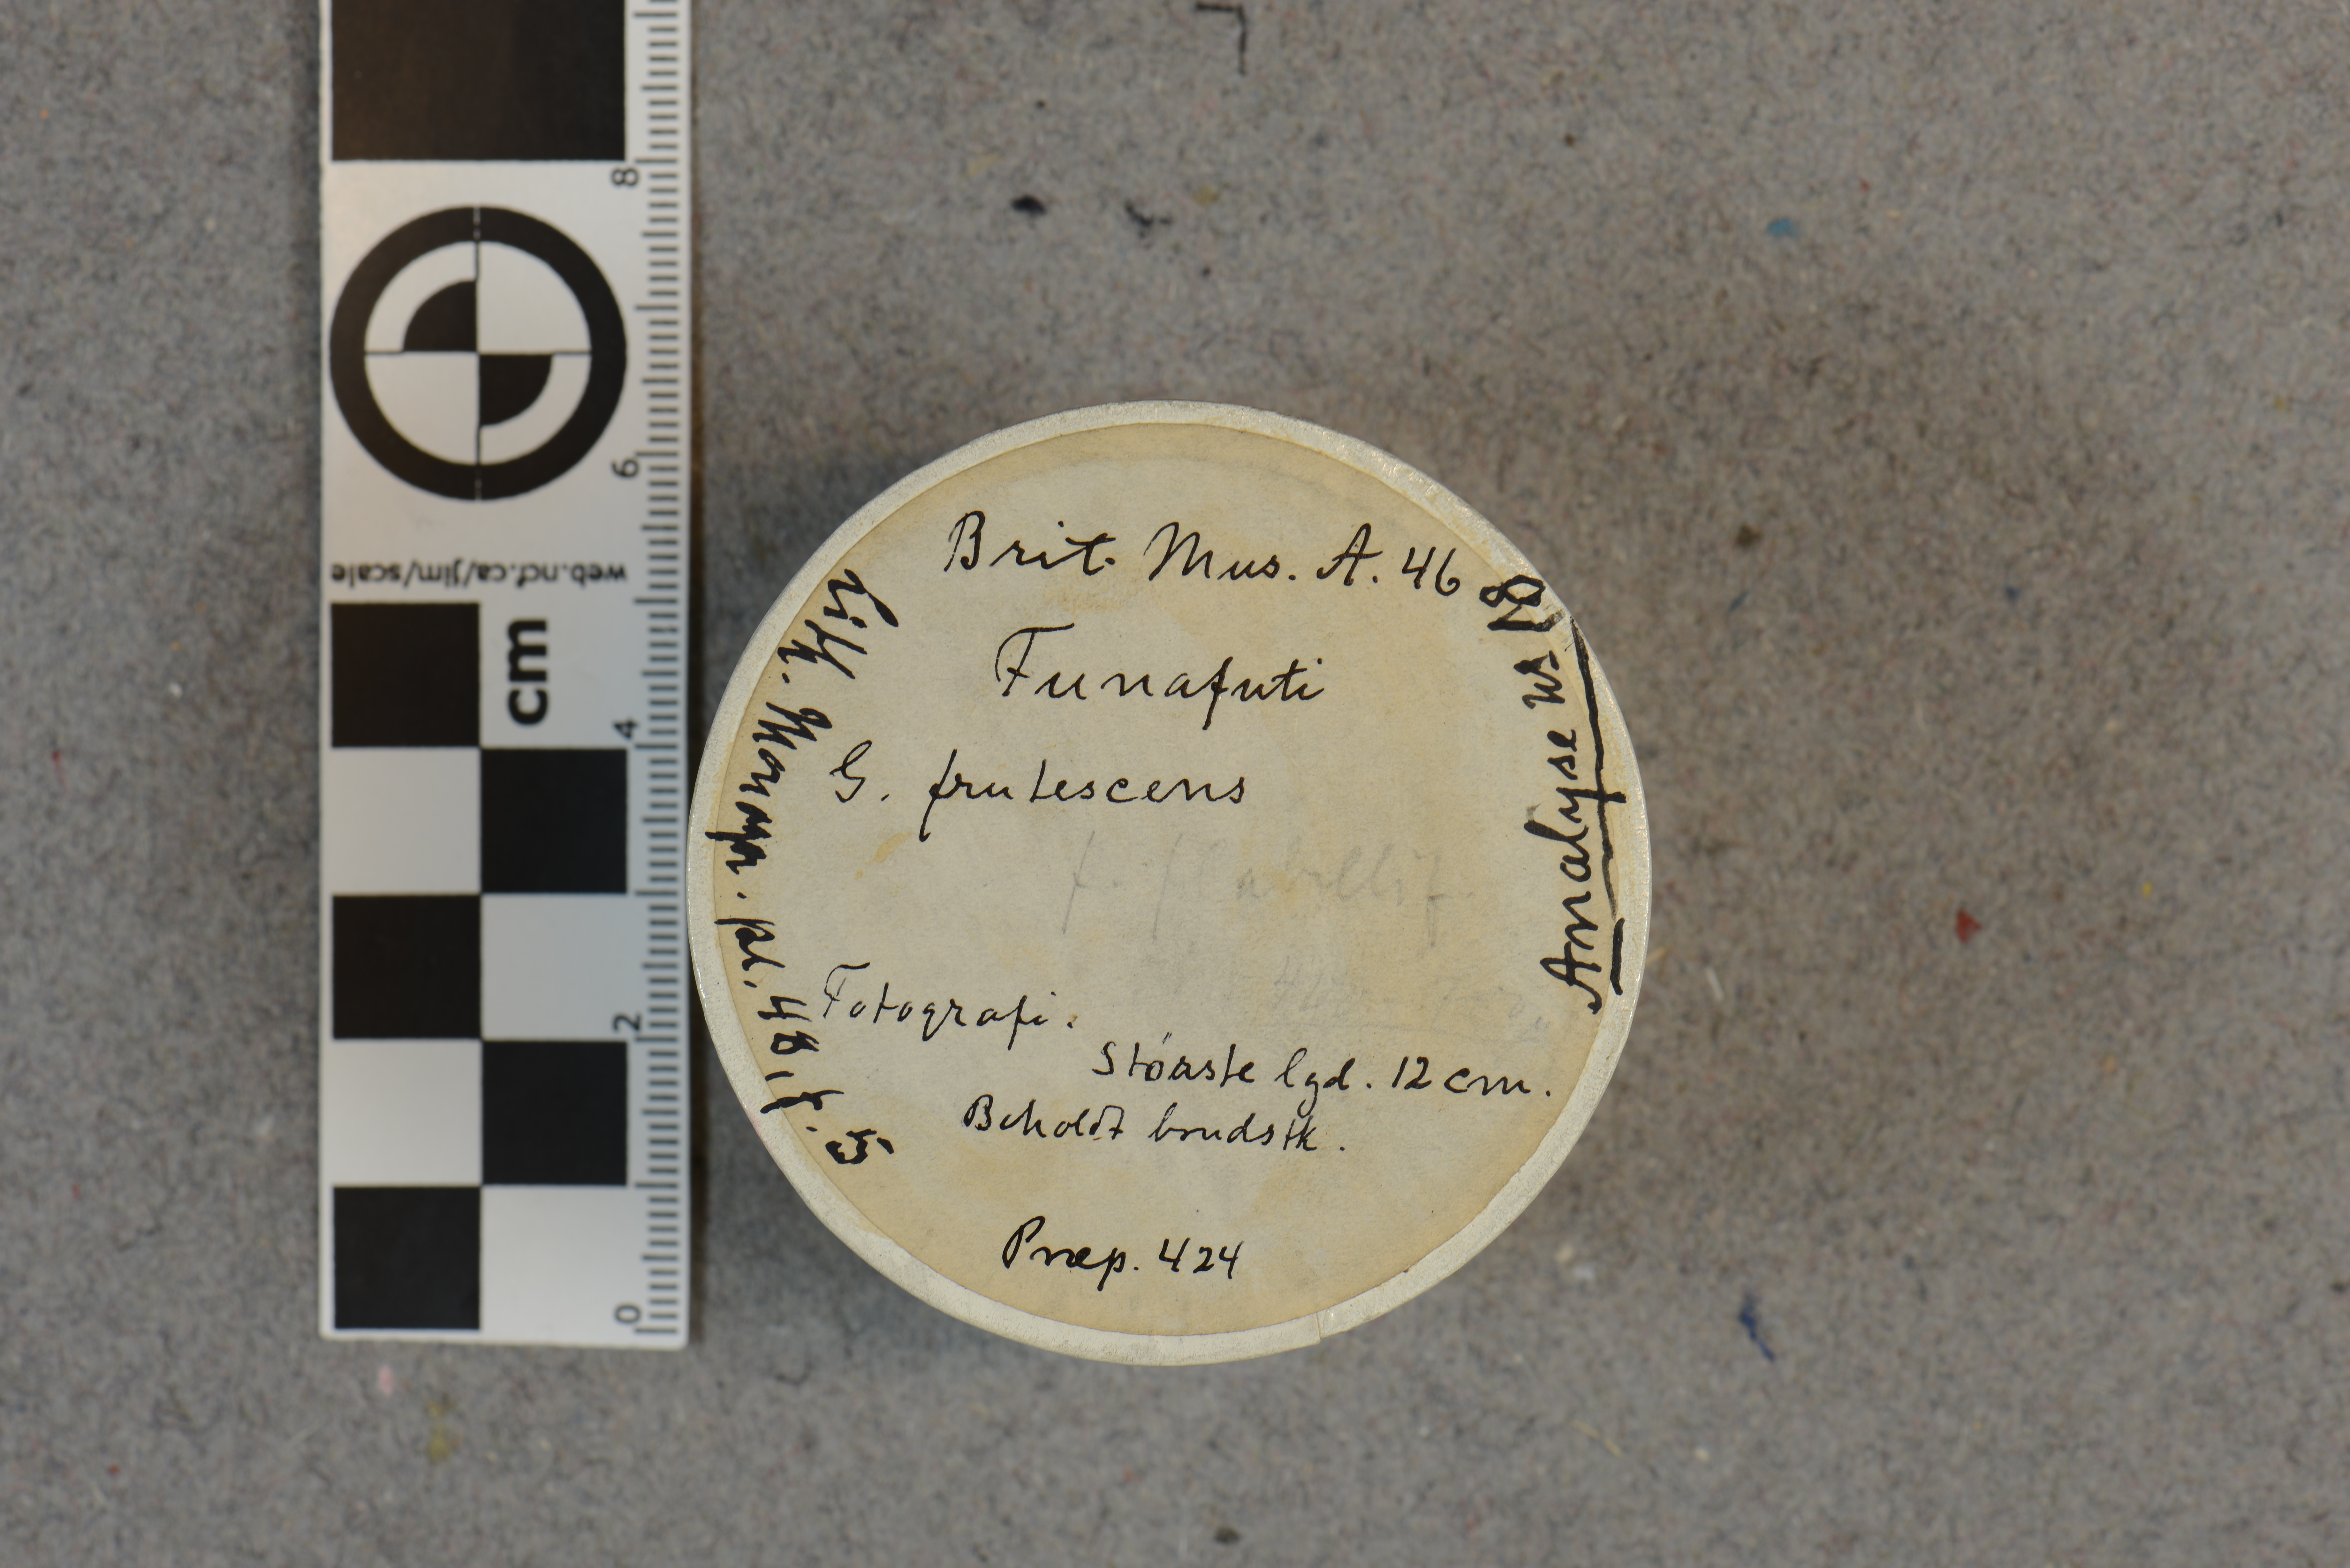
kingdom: Plantae
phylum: Rhodophyta
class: Florideophyceae
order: Corallinales
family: Spongitaceae
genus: Neogoniolithon
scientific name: Neogoniolithon brassica-florida
